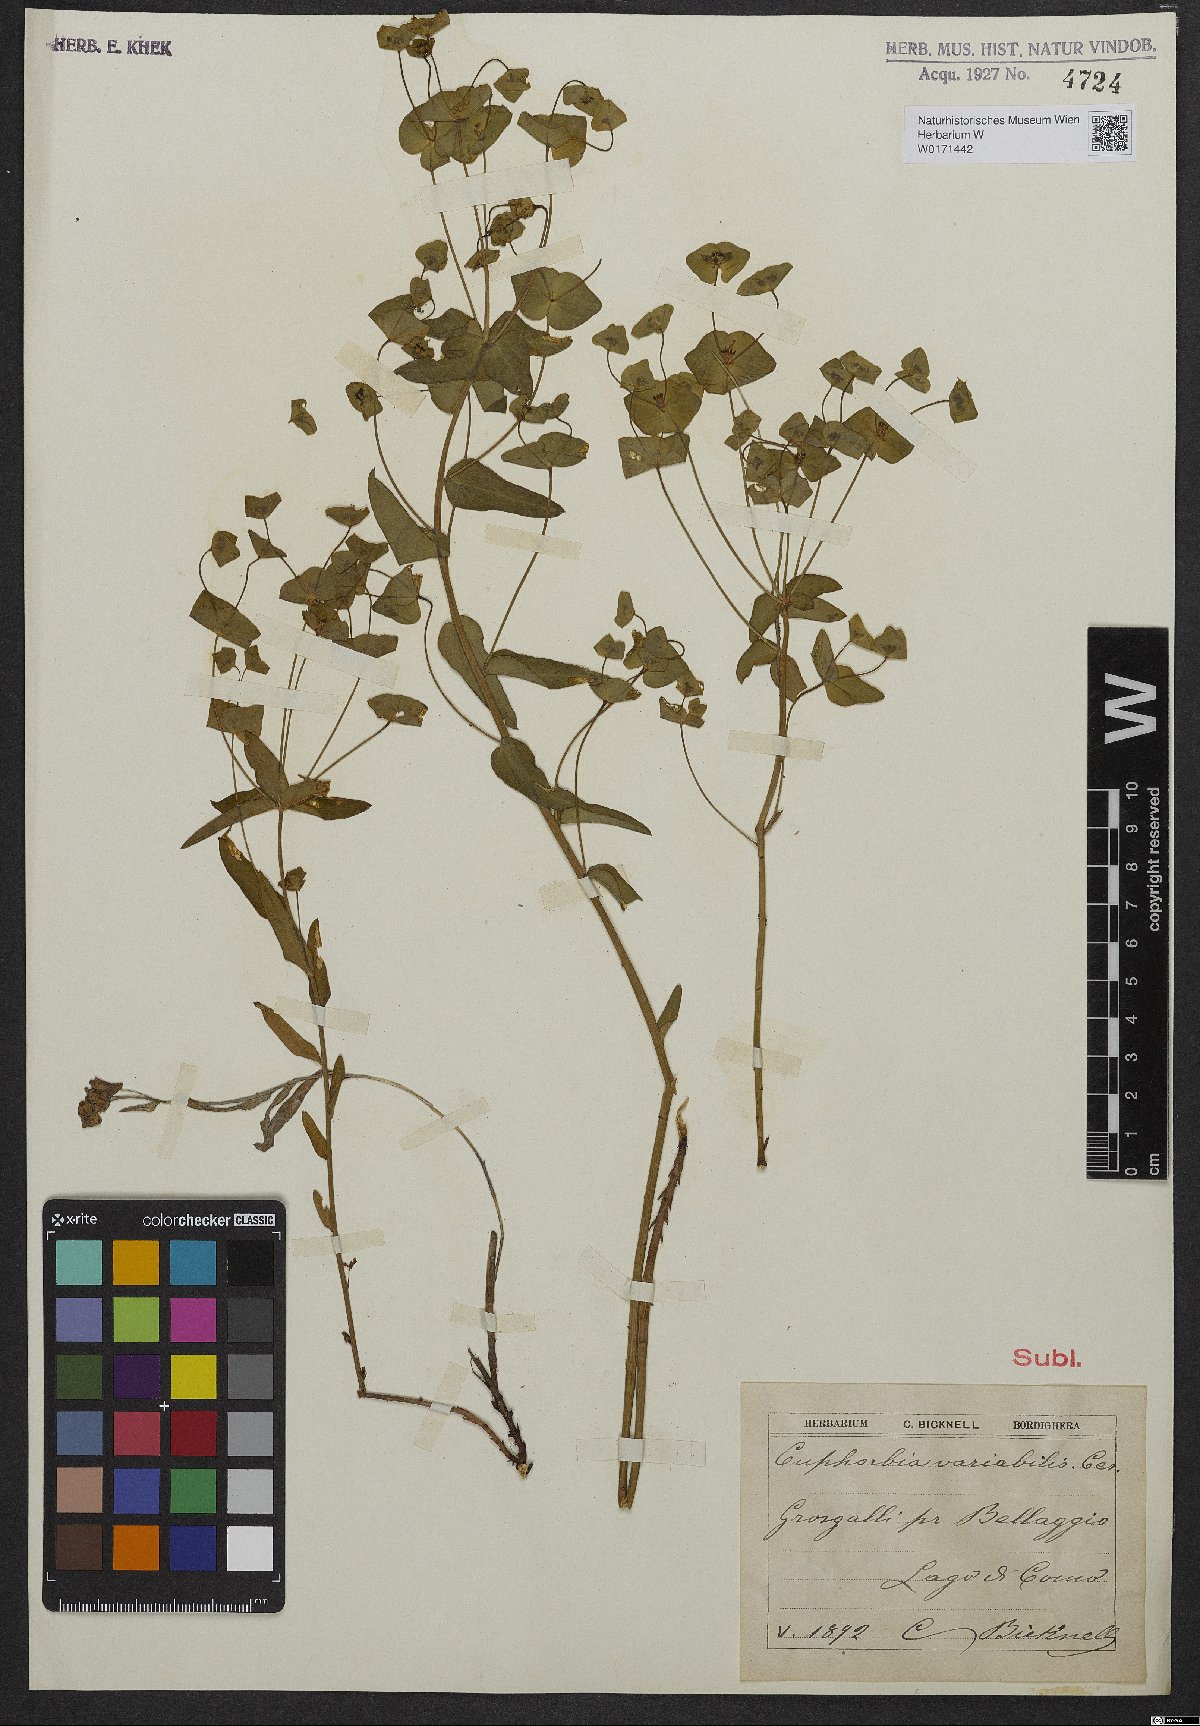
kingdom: Plantae
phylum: Tracheophyta
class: Magnoliopsida
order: Malpighiales
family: Euphorbiaceae
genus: Euphorbia
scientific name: Euphorbia variabilis
